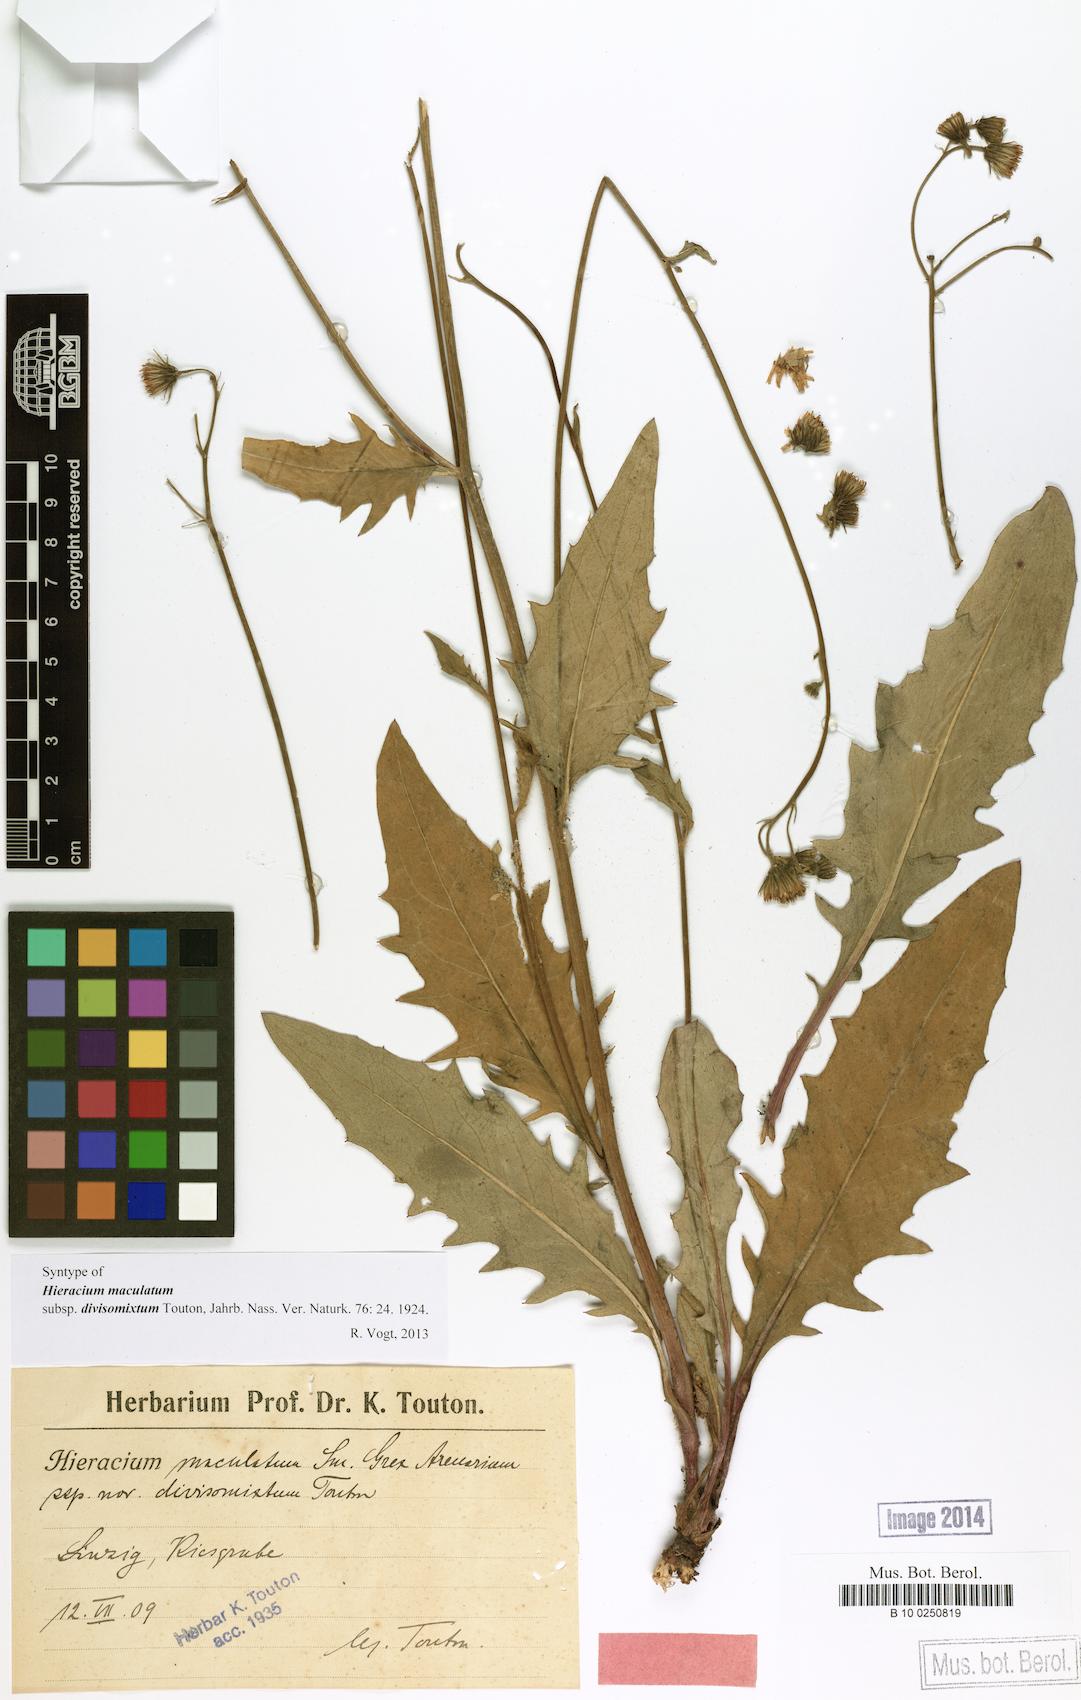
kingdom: Plantae
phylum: Tracheophyta
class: Magnoliopsida
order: Asterales
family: Asteraceae
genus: Hieracium
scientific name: Hieracium maculatum
